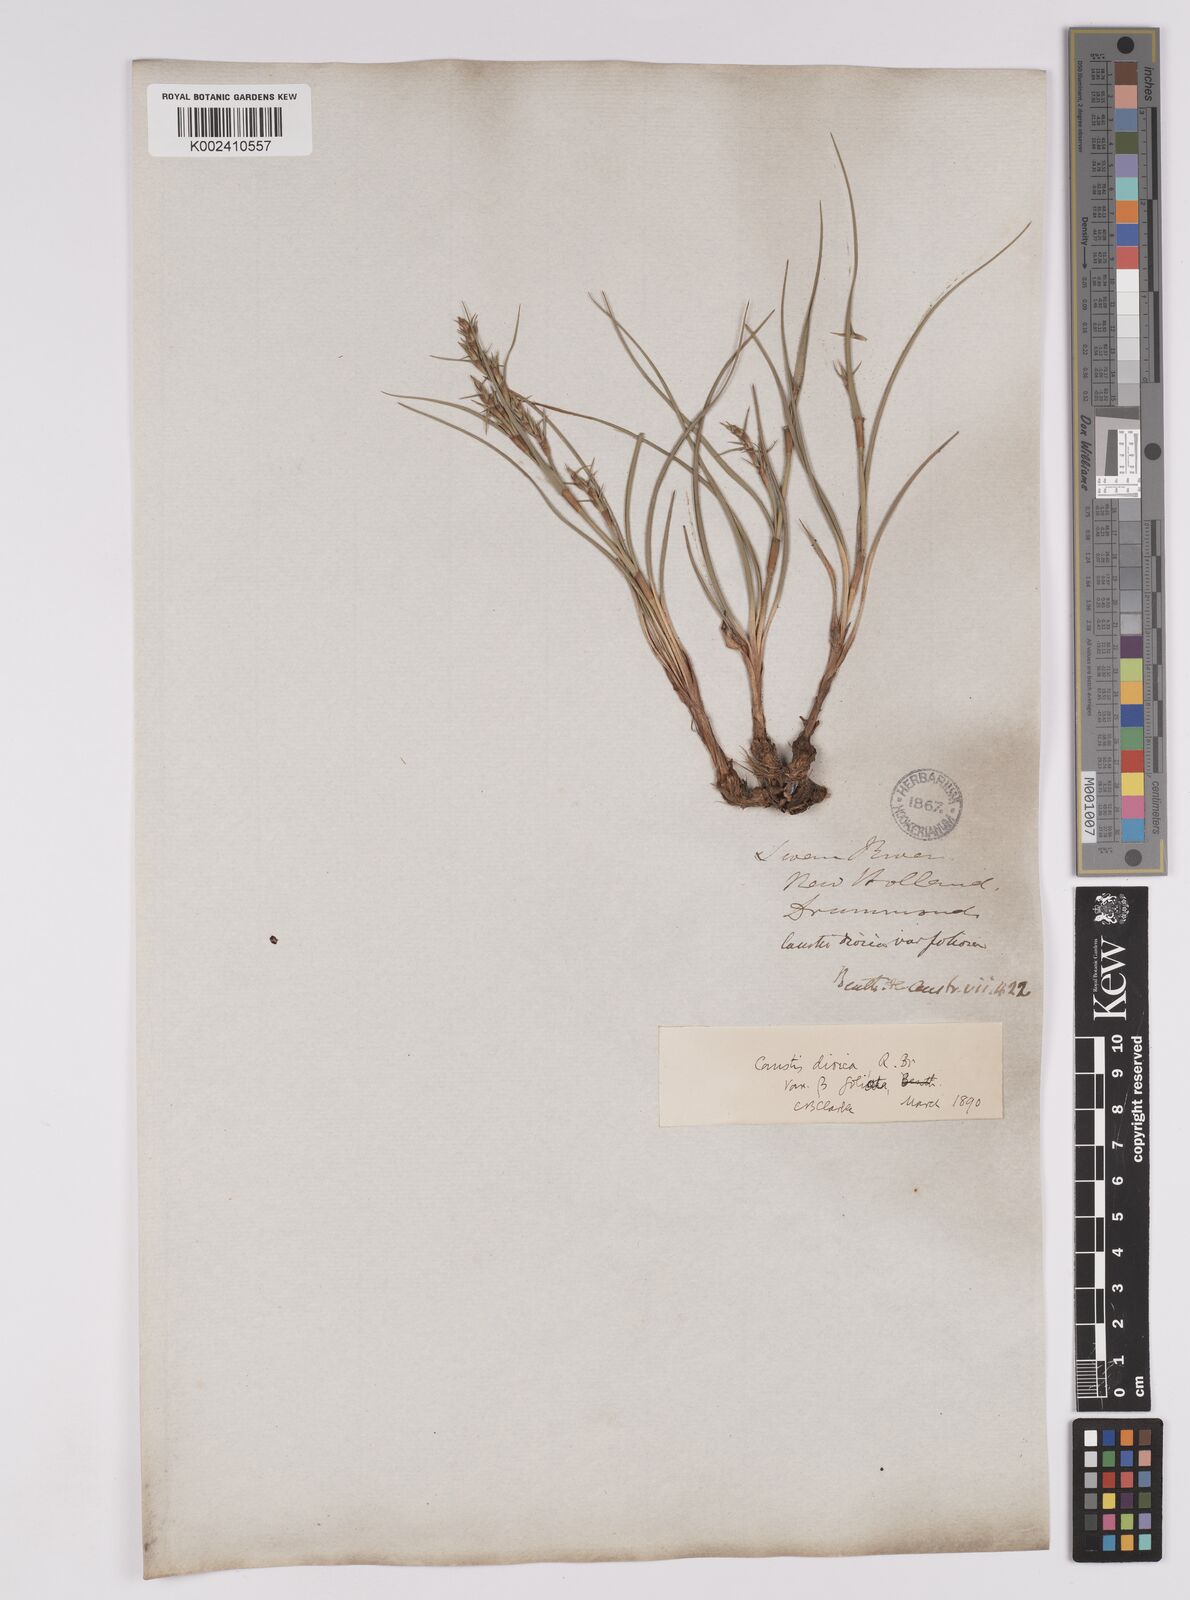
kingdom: Plantae
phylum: Tracheophyta
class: Liliopsida
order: Poales
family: Cyperaceae
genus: Caustis
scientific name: Caustis dioica
